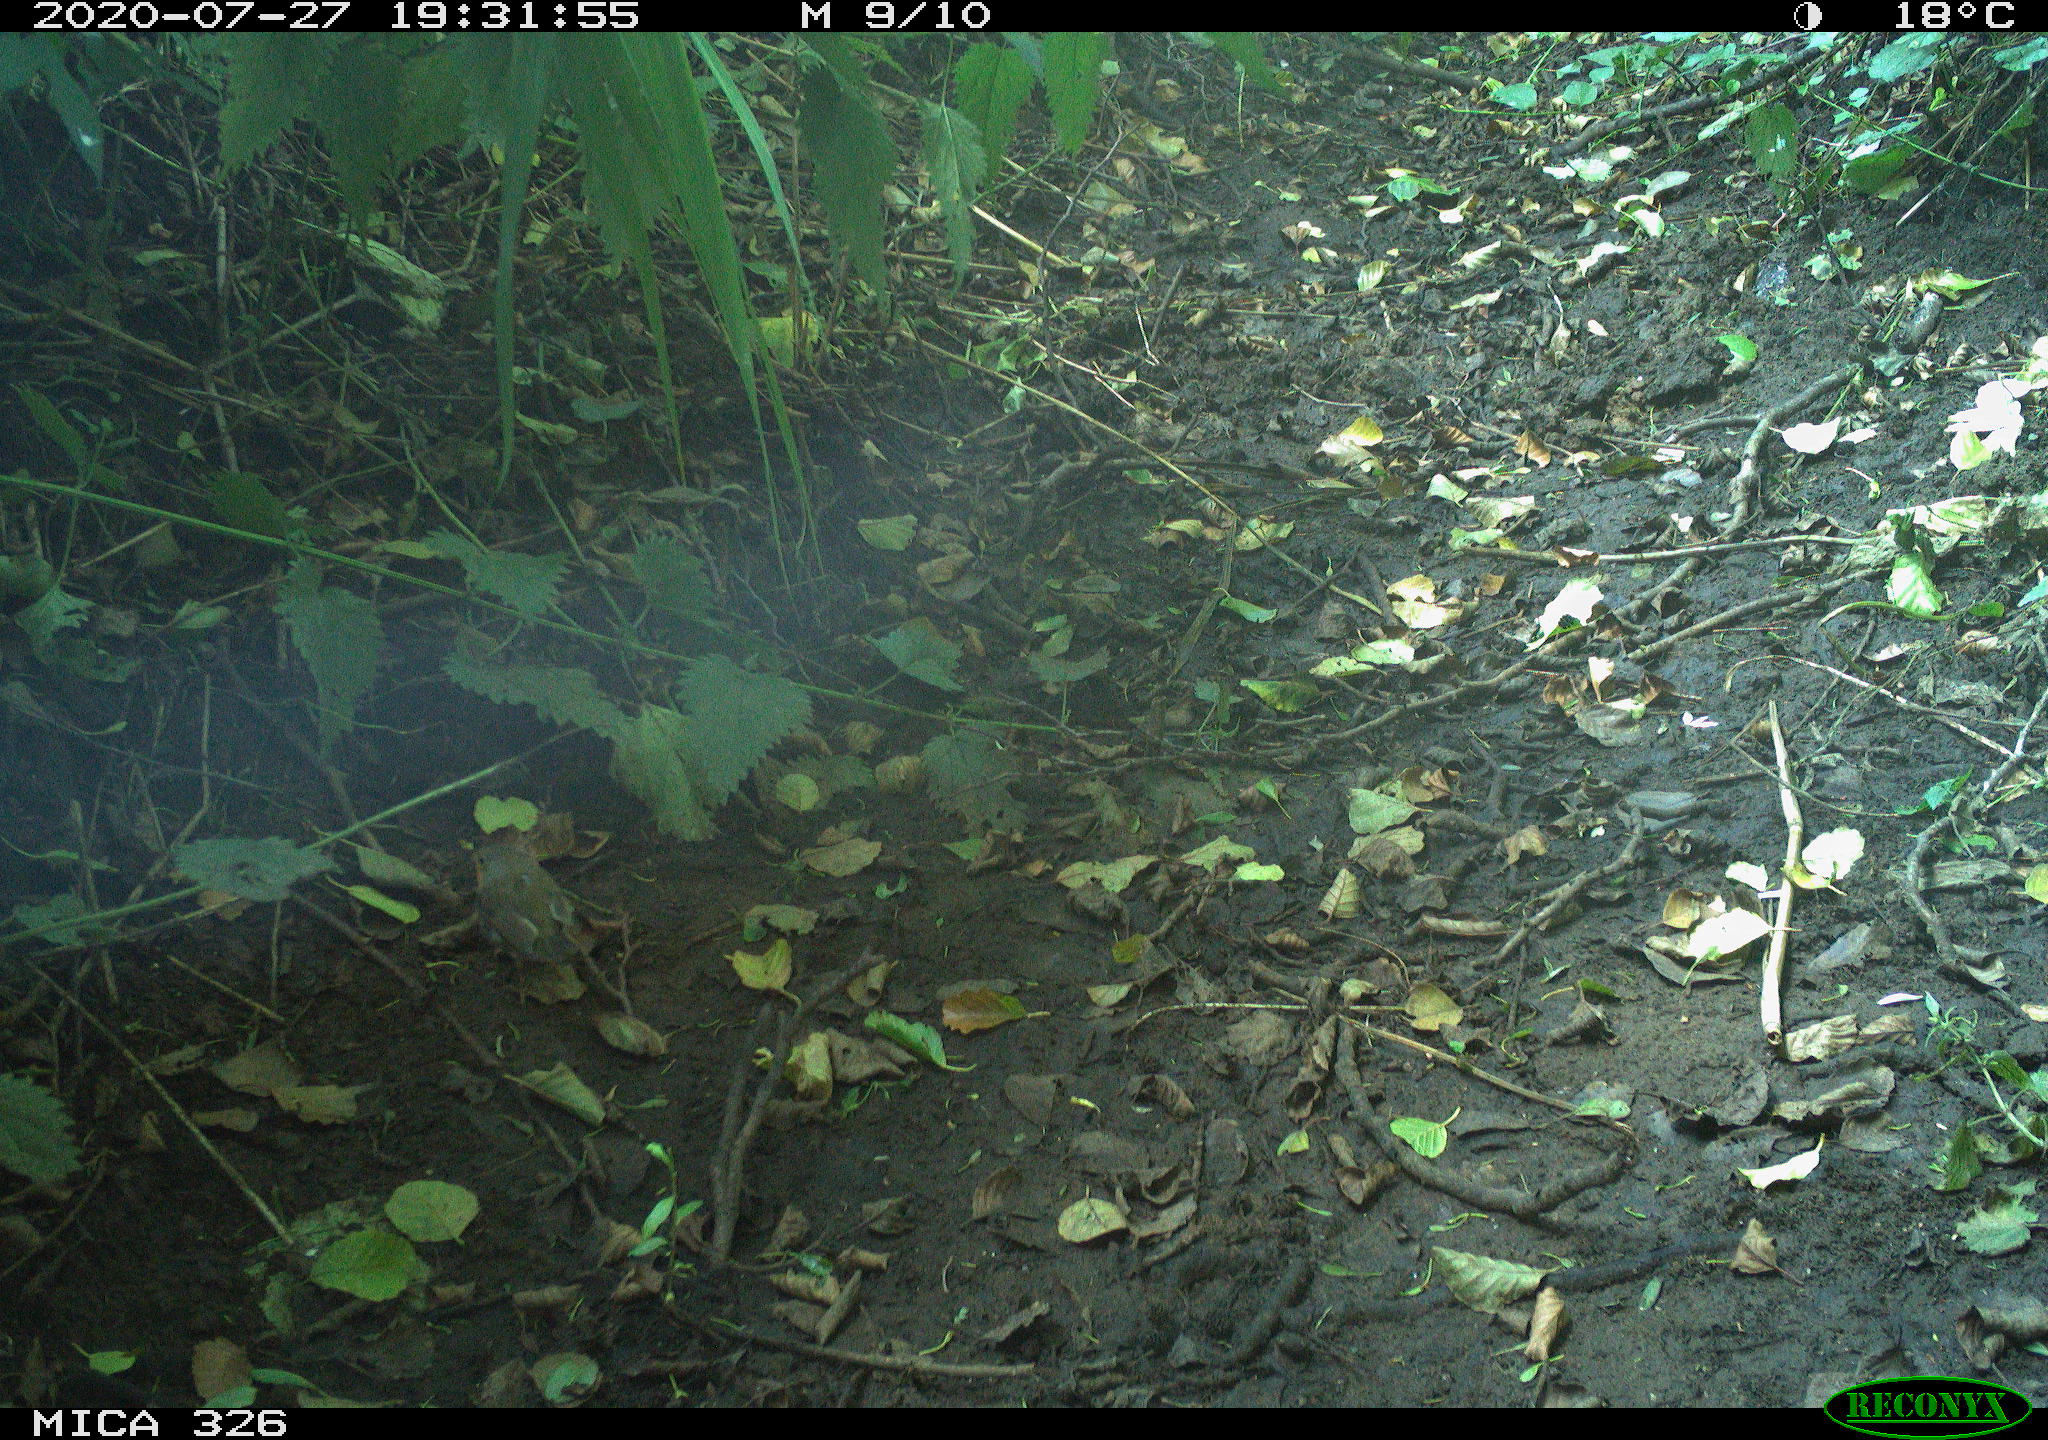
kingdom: Animalia
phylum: Chordata
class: Aves
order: Passeriformes
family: Muscicapidae
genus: Erithacus
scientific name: Erithacus rubecula
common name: European robin
